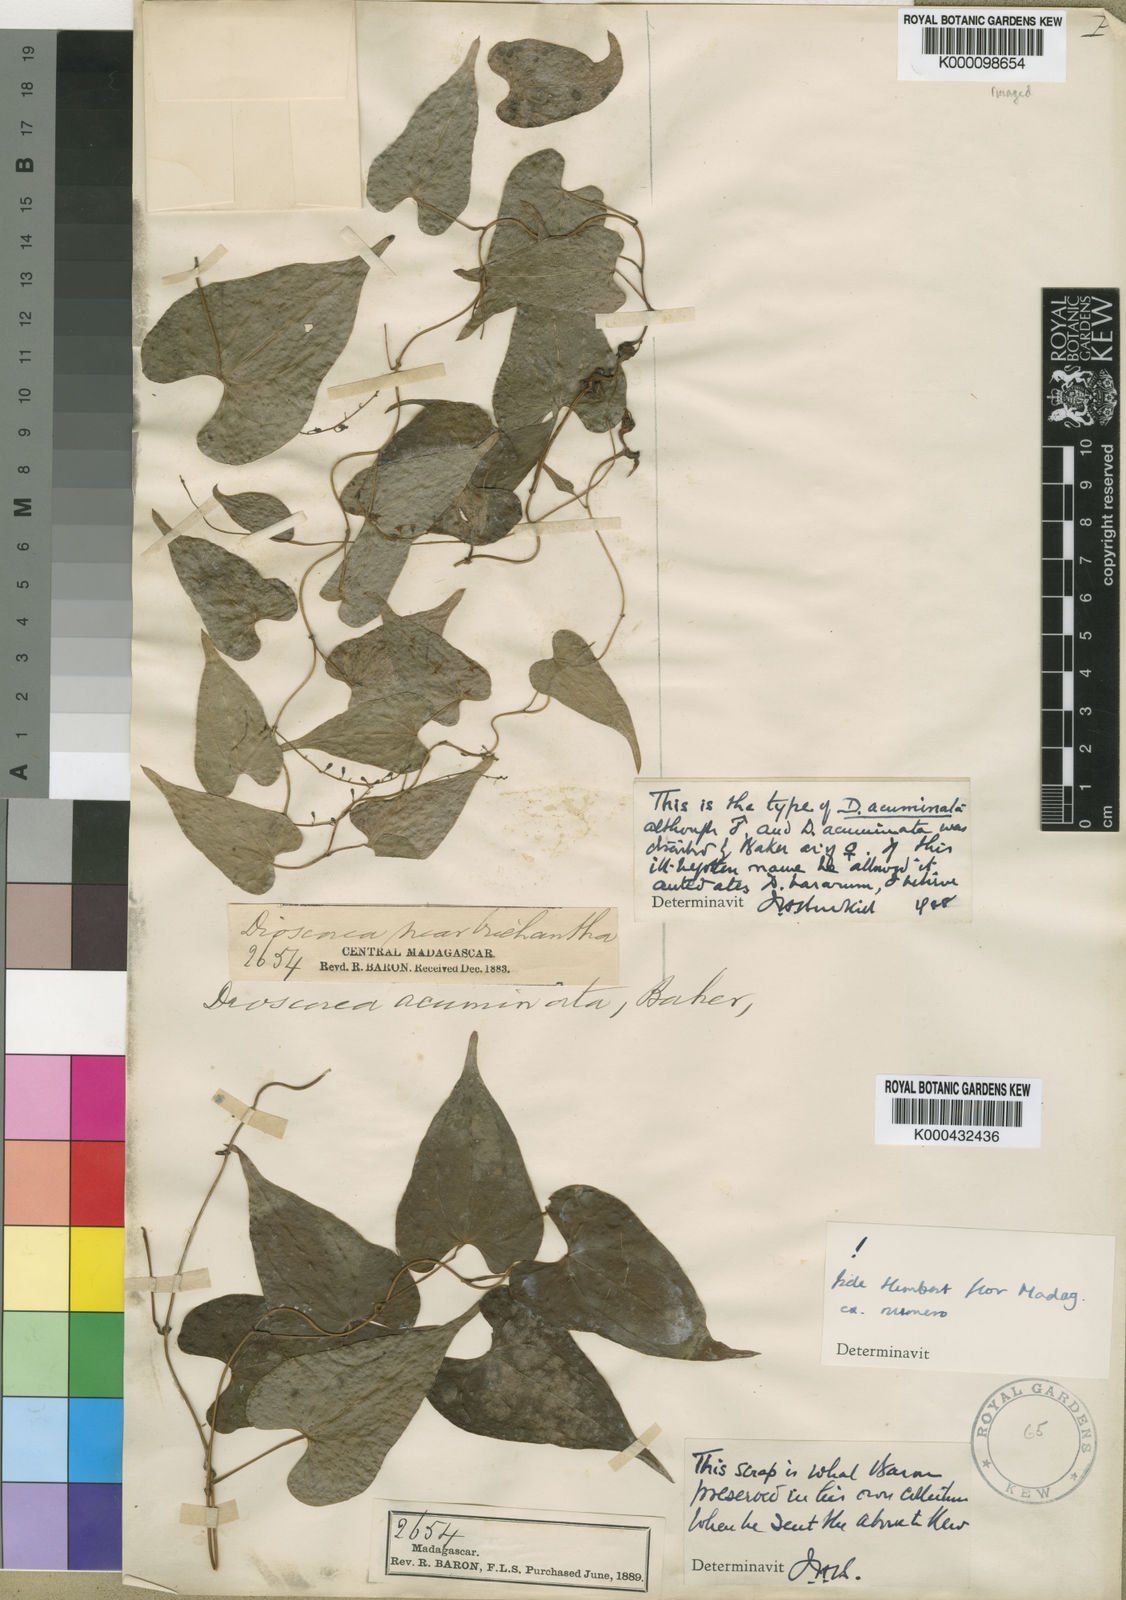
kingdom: Plantae
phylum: Tracheophyta
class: Liliopsida
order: Dioscoreales
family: Dioscoreaceae
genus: Dioscorea
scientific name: Dioscorea acuminata
